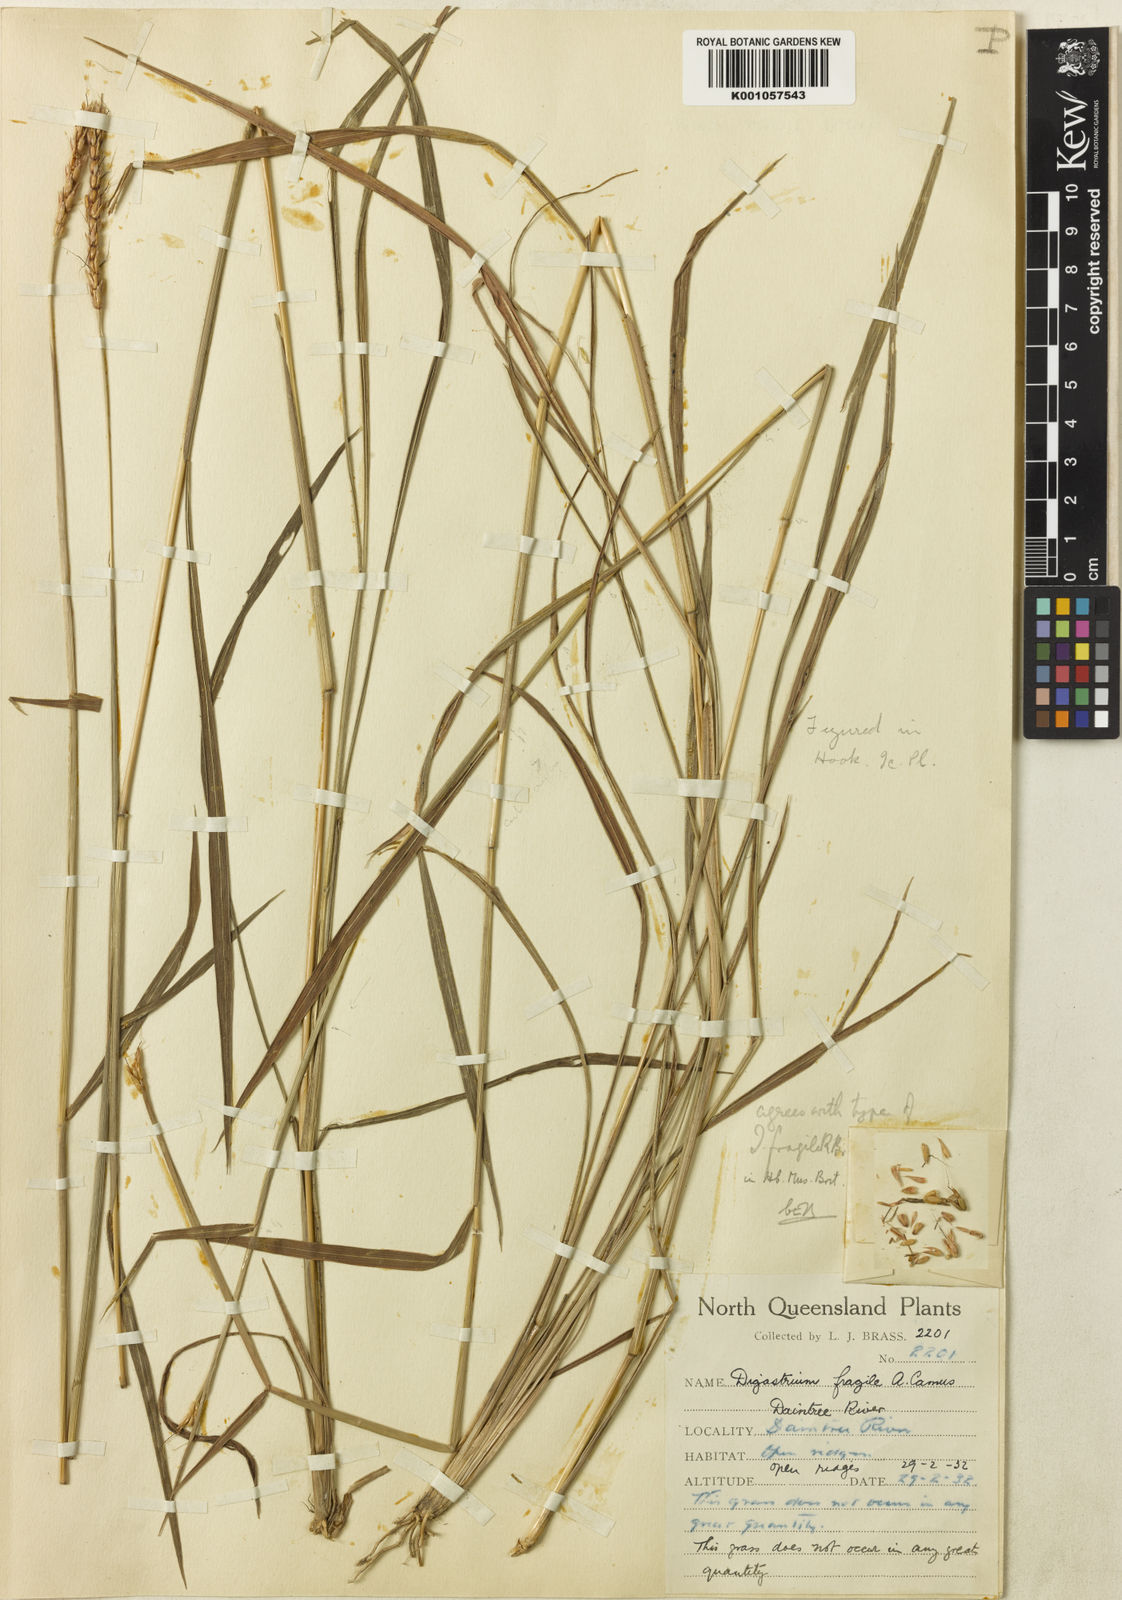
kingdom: Plantae
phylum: Tracheophyta
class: Liliopsida
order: Poales
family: Poaceae
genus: Ischaemum
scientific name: Ischaemum fragile
